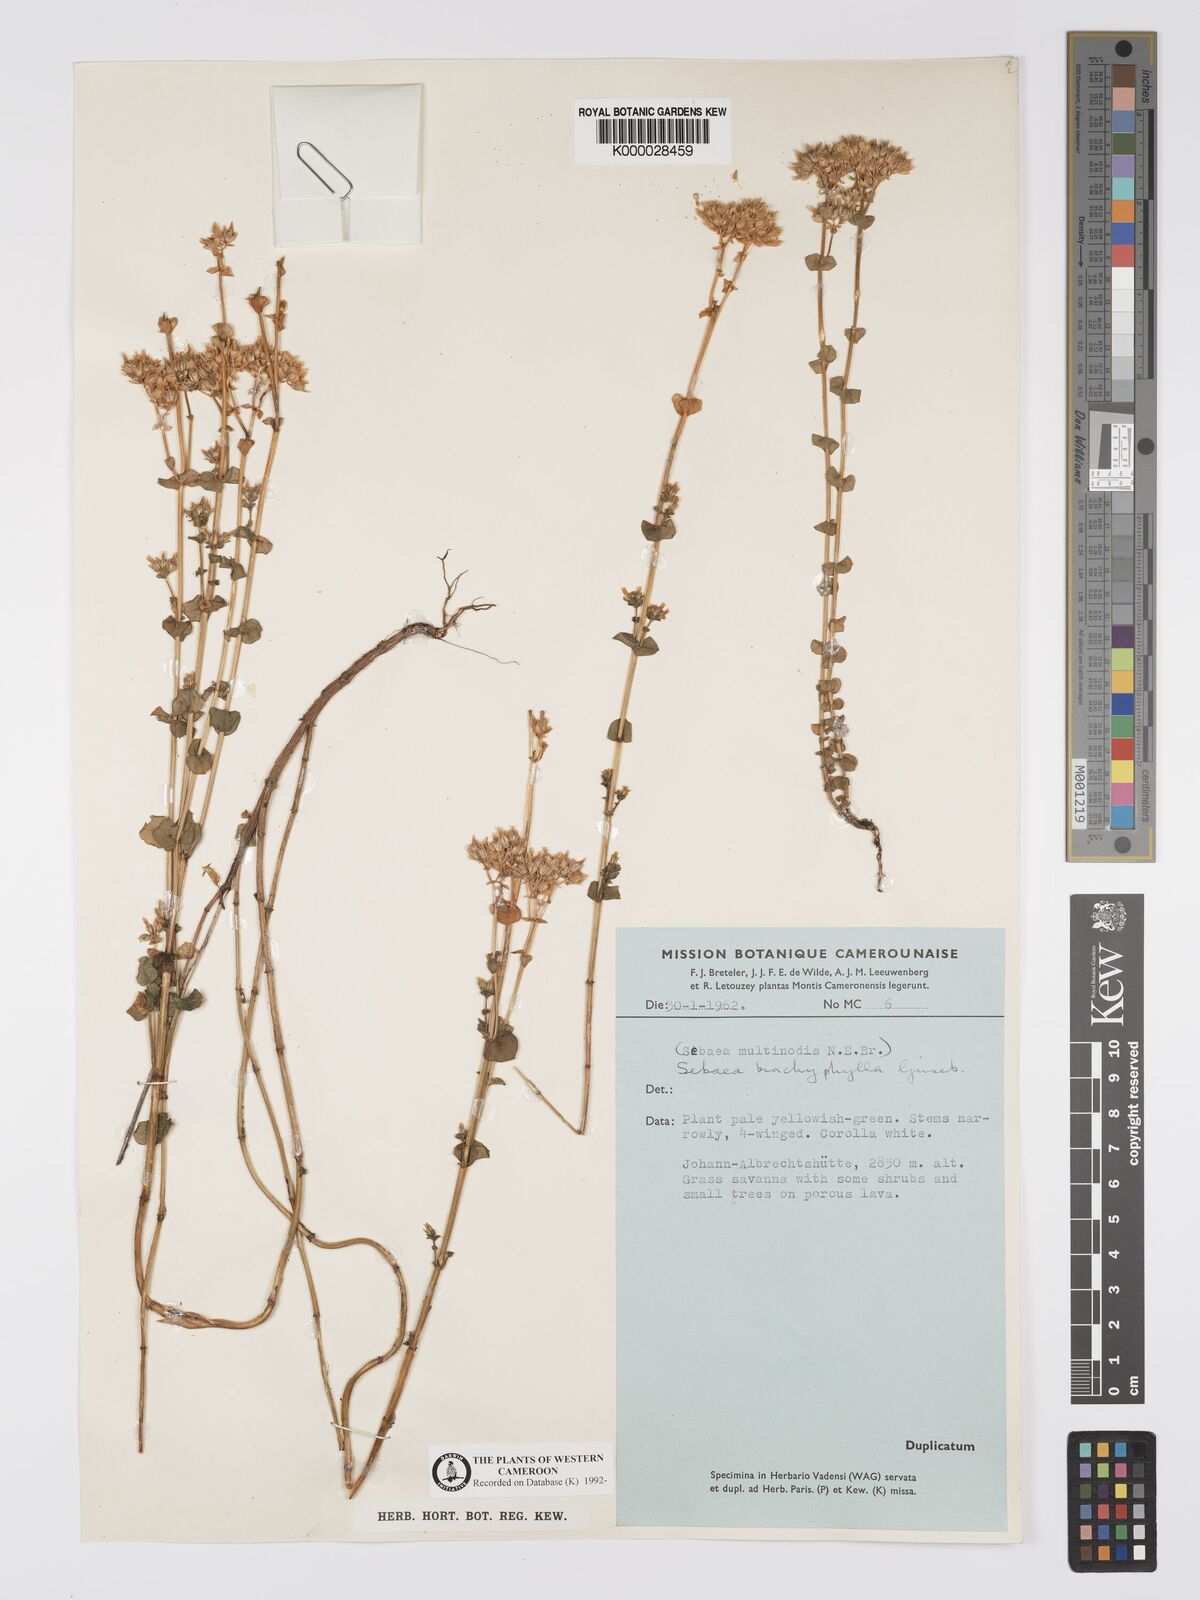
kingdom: Plantae
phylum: Tracheophyta
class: Magnoliopsida
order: Gentianales
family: Gentianaceae
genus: Sebaea
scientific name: Sebaea brachyphylla
